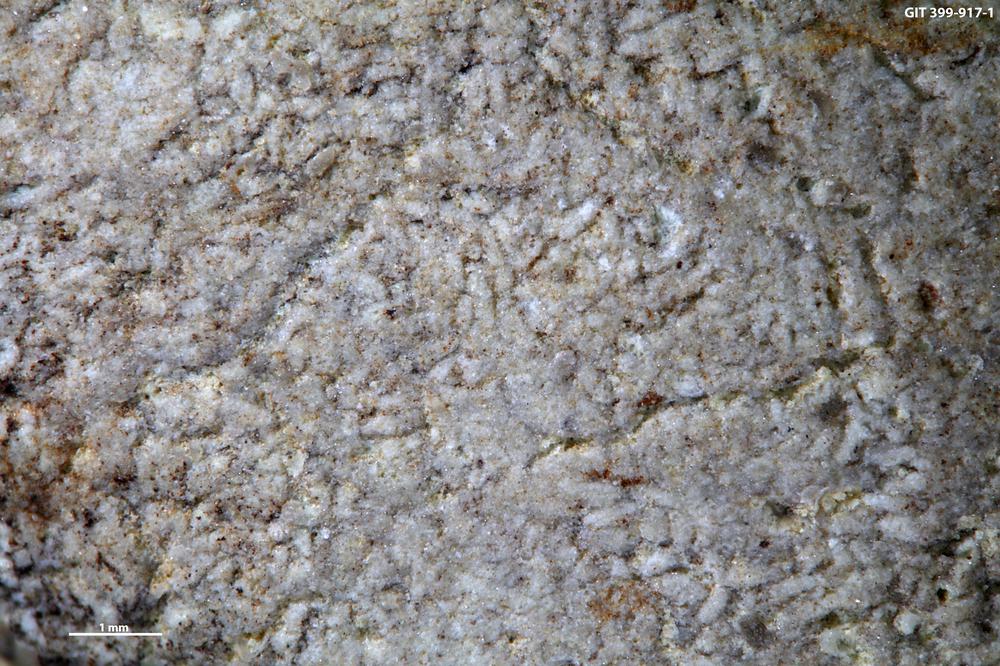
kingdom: Animalia
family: Coprulidae
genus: Coprulus
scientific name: Coprulus
